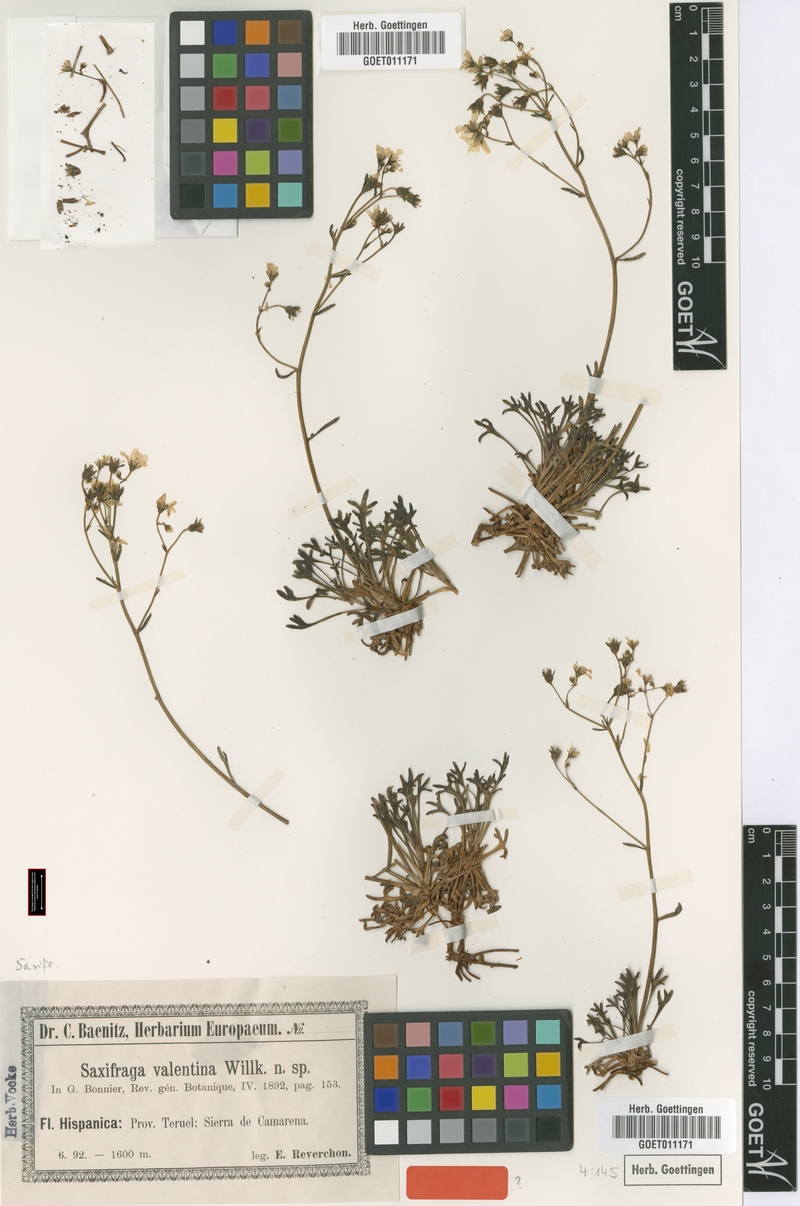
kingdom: Plantae
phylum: Tracheophyta
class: Magnoliopsida
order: Saxifragales
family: Saxifragaceae
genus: Saxifraga
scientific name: Saxifraga fragilis
